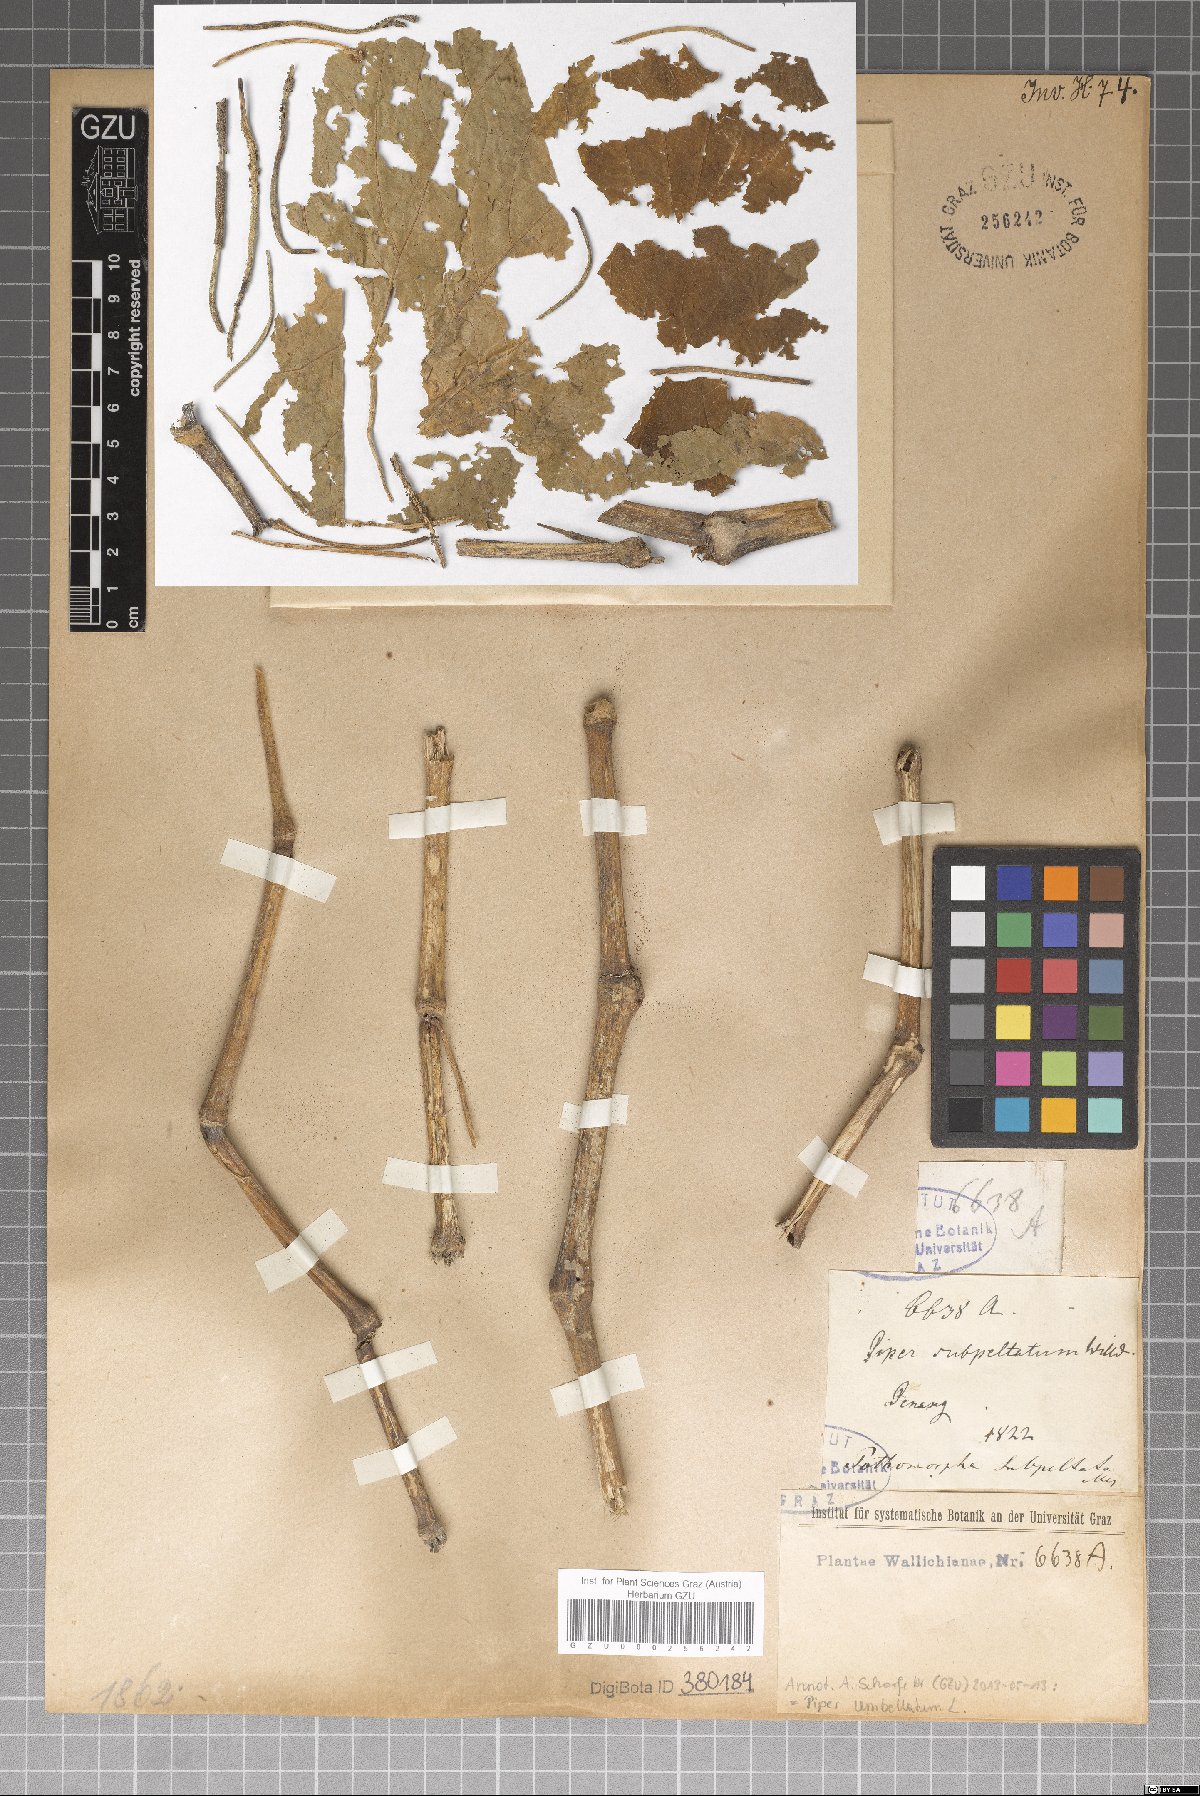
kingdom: Plantae
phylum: Tracheophyta
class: Magnoliopsida
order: Piperales
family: Piperaceae
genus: Piper
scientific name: Piper umbellatum
